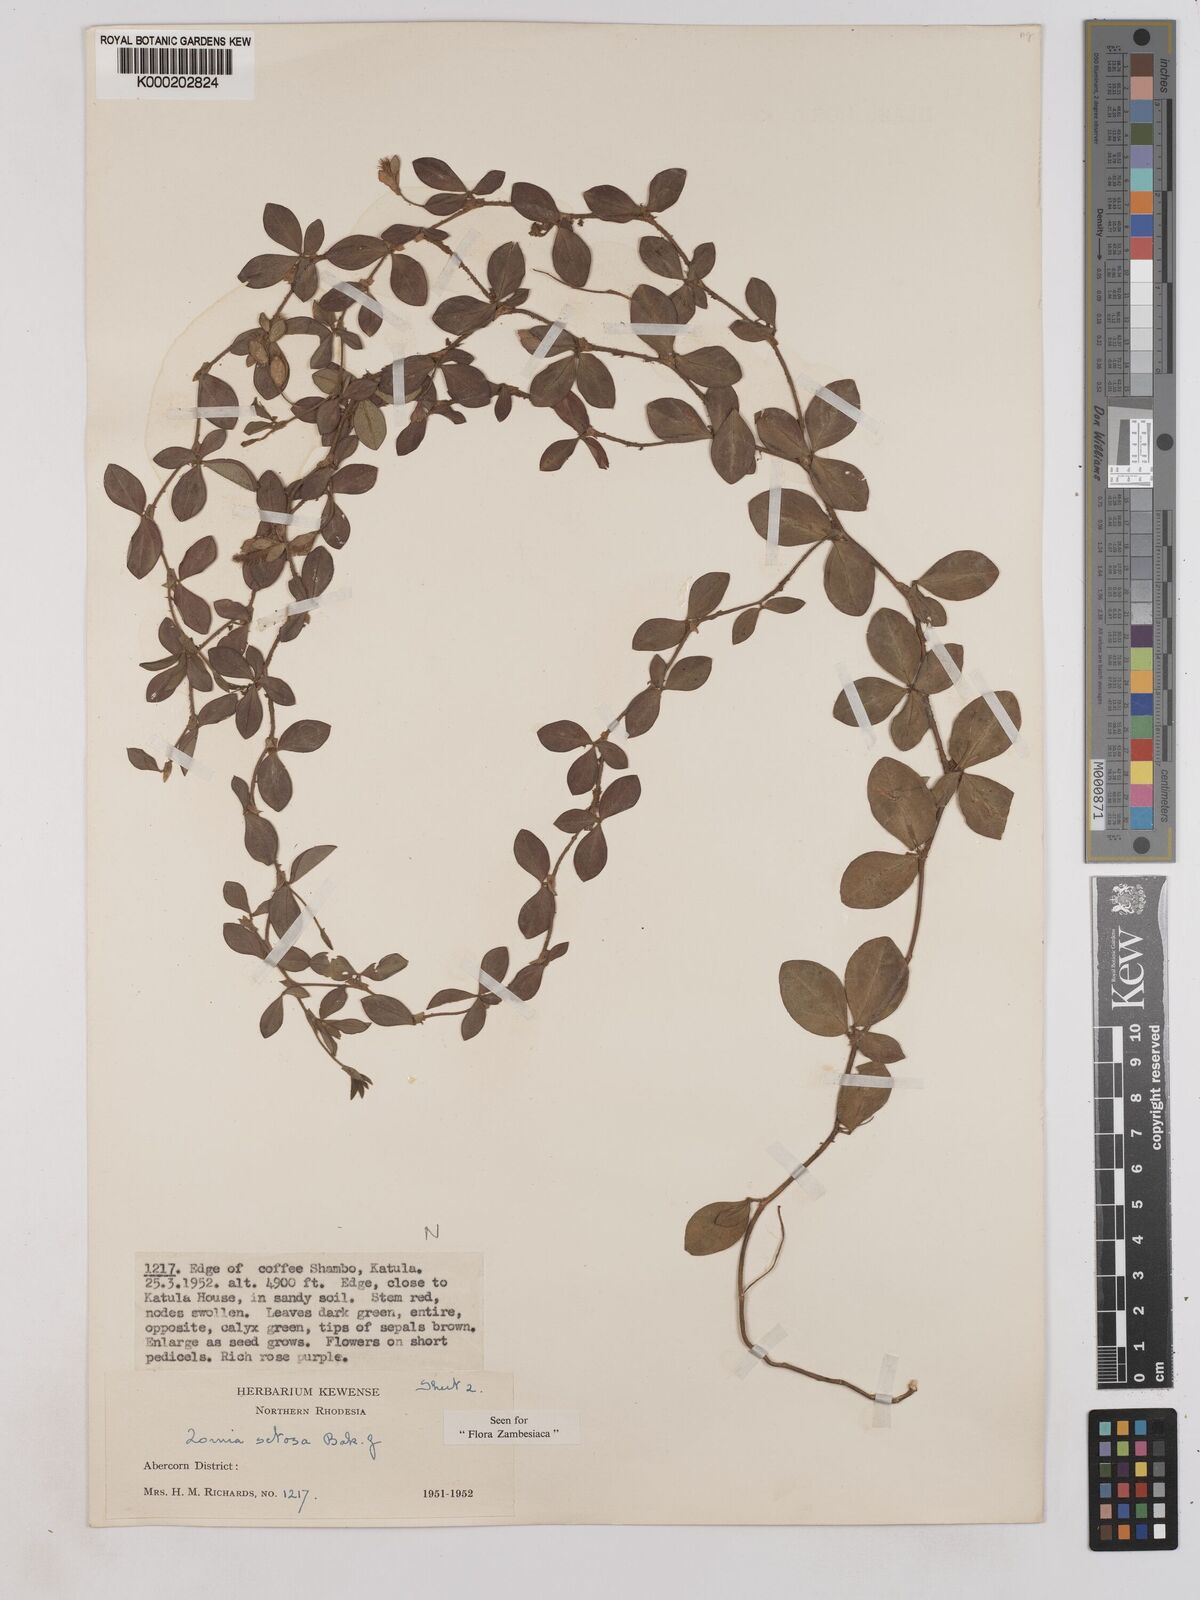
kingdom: Plantae
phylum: Tracheophyta
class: Magnoliopsida
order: Fabales
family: Fabaceae
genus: Zornia
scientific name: Zornia setosa
